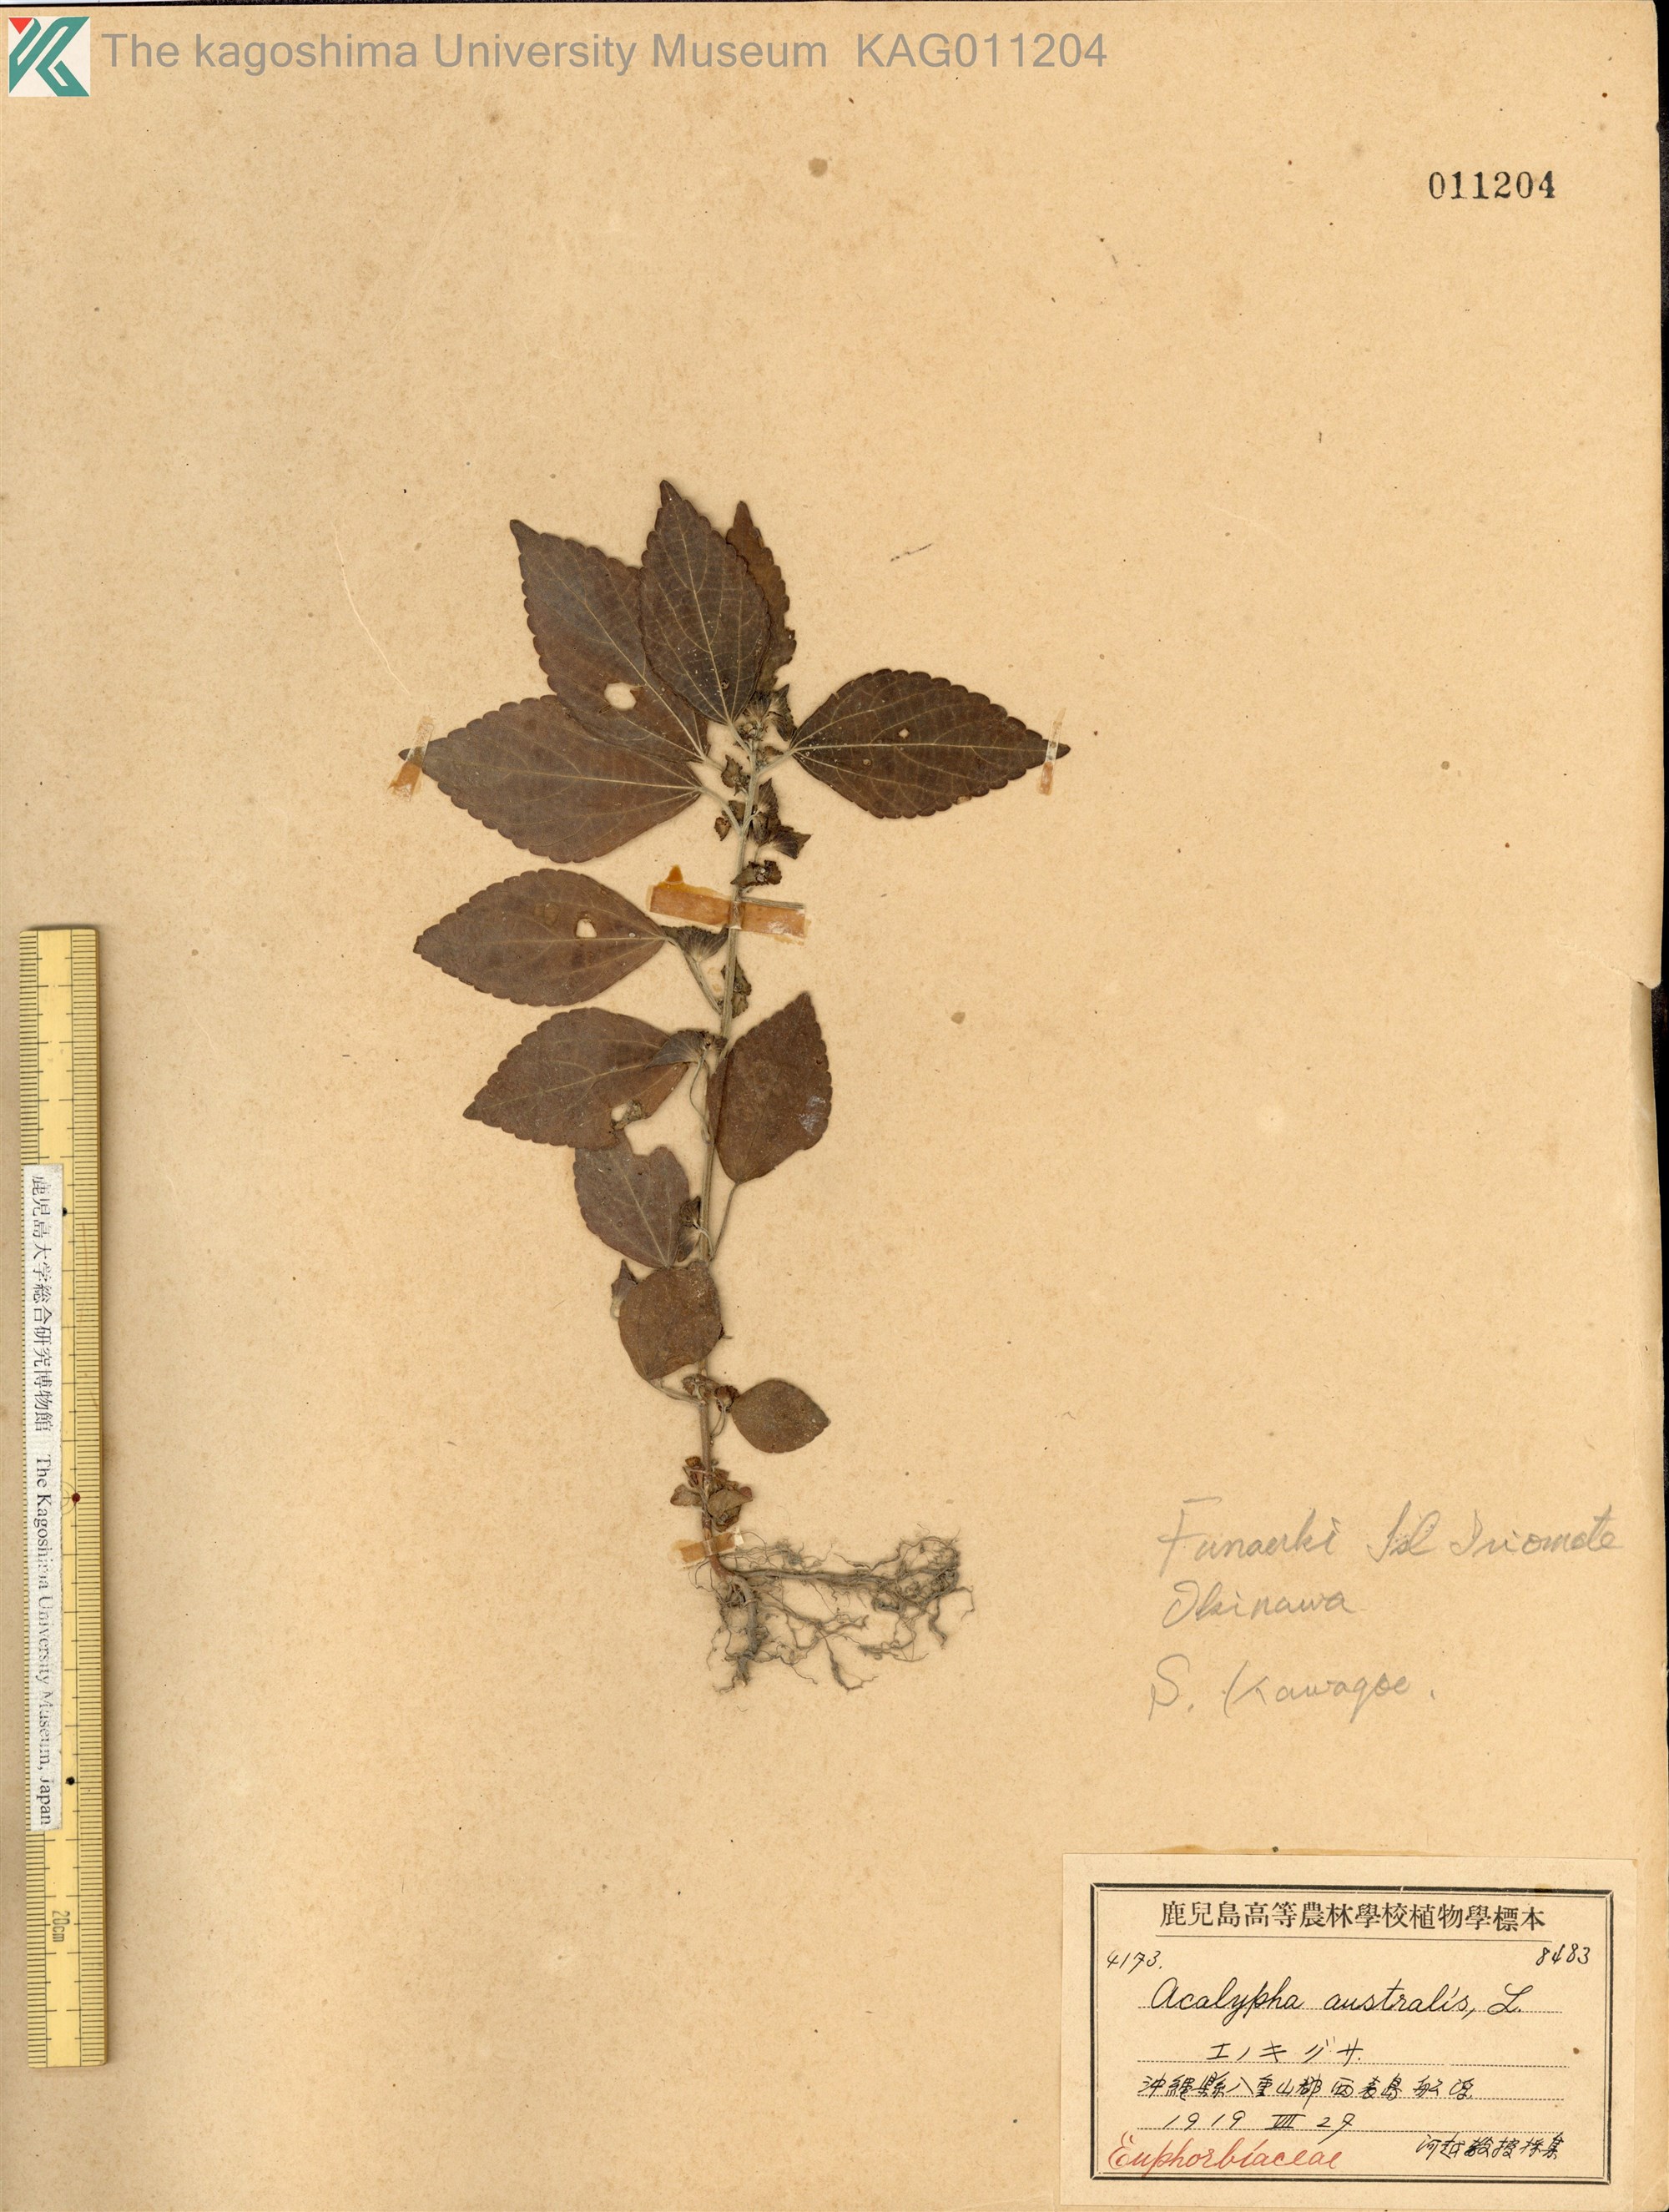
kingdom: Plantae
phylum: Tracheophyta
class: Magnoliopsida
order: Malpighiales
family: Euphorbiaceae
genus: Acalypha
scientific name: Acalypha australis
